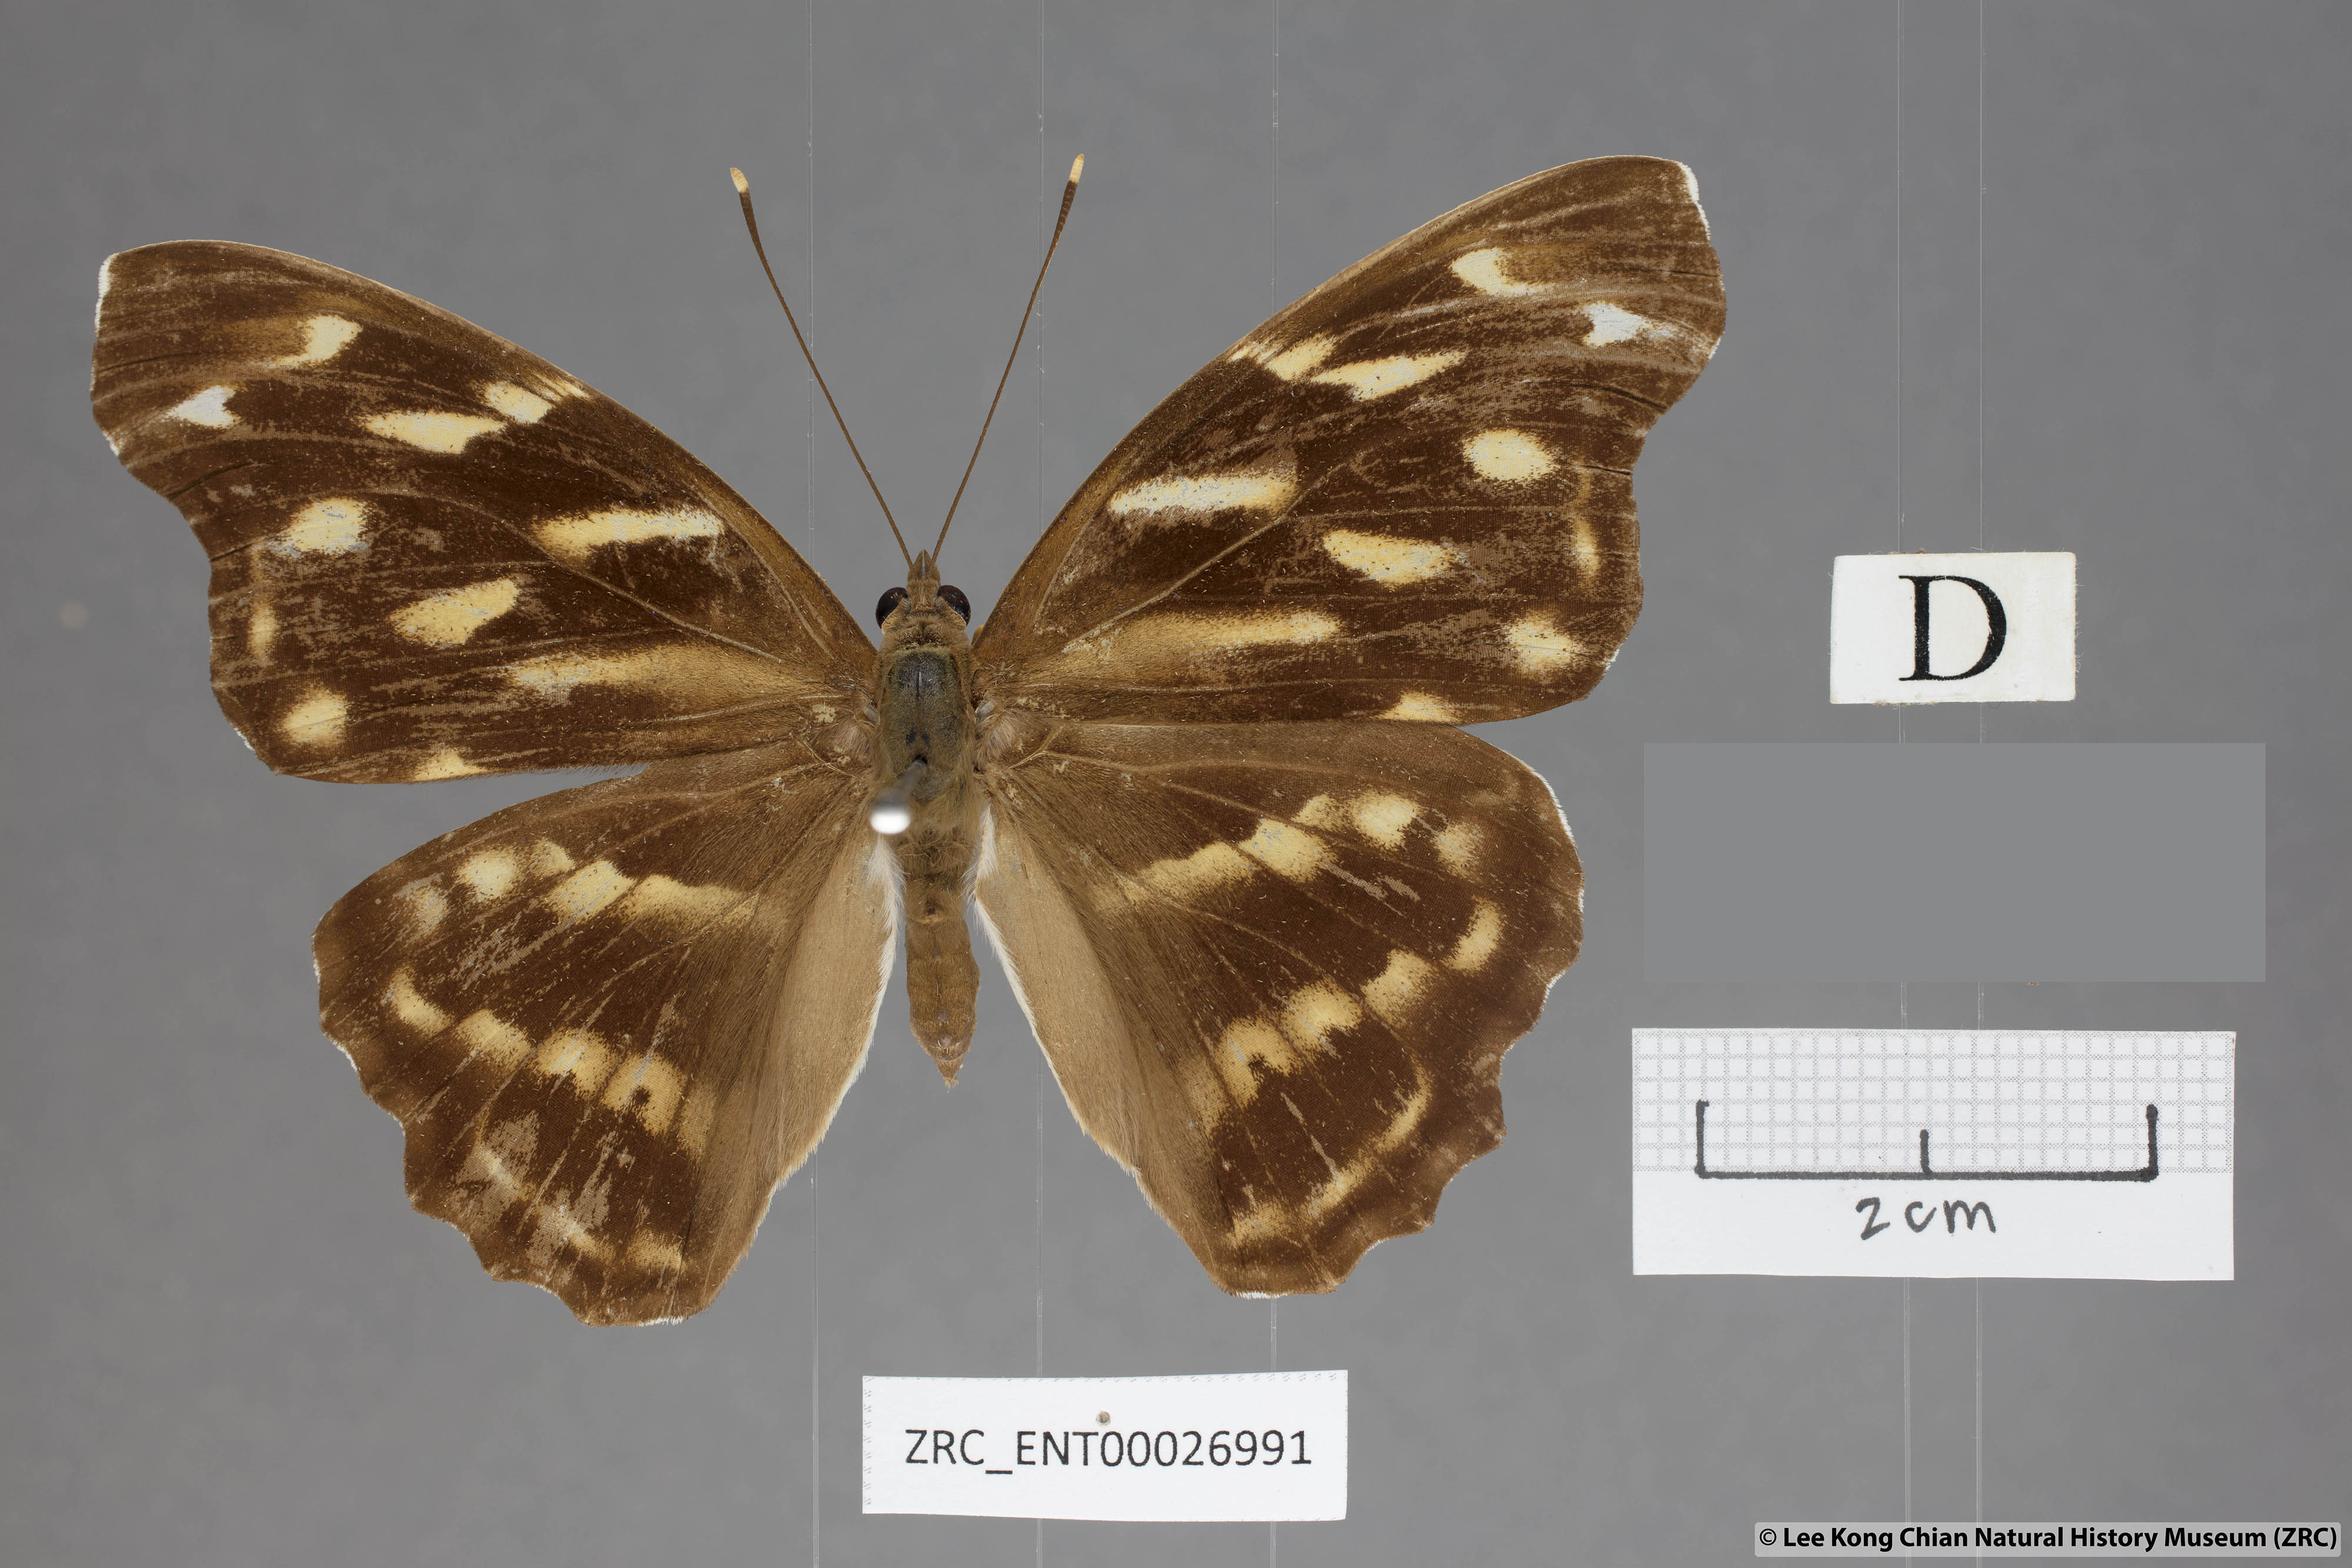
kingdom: Animalia
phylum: Arthropoda
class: Insecta
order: Lepidoptera
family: Nymphalidae
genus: Herona
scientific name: Herona marathus
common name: Yellow pasha
